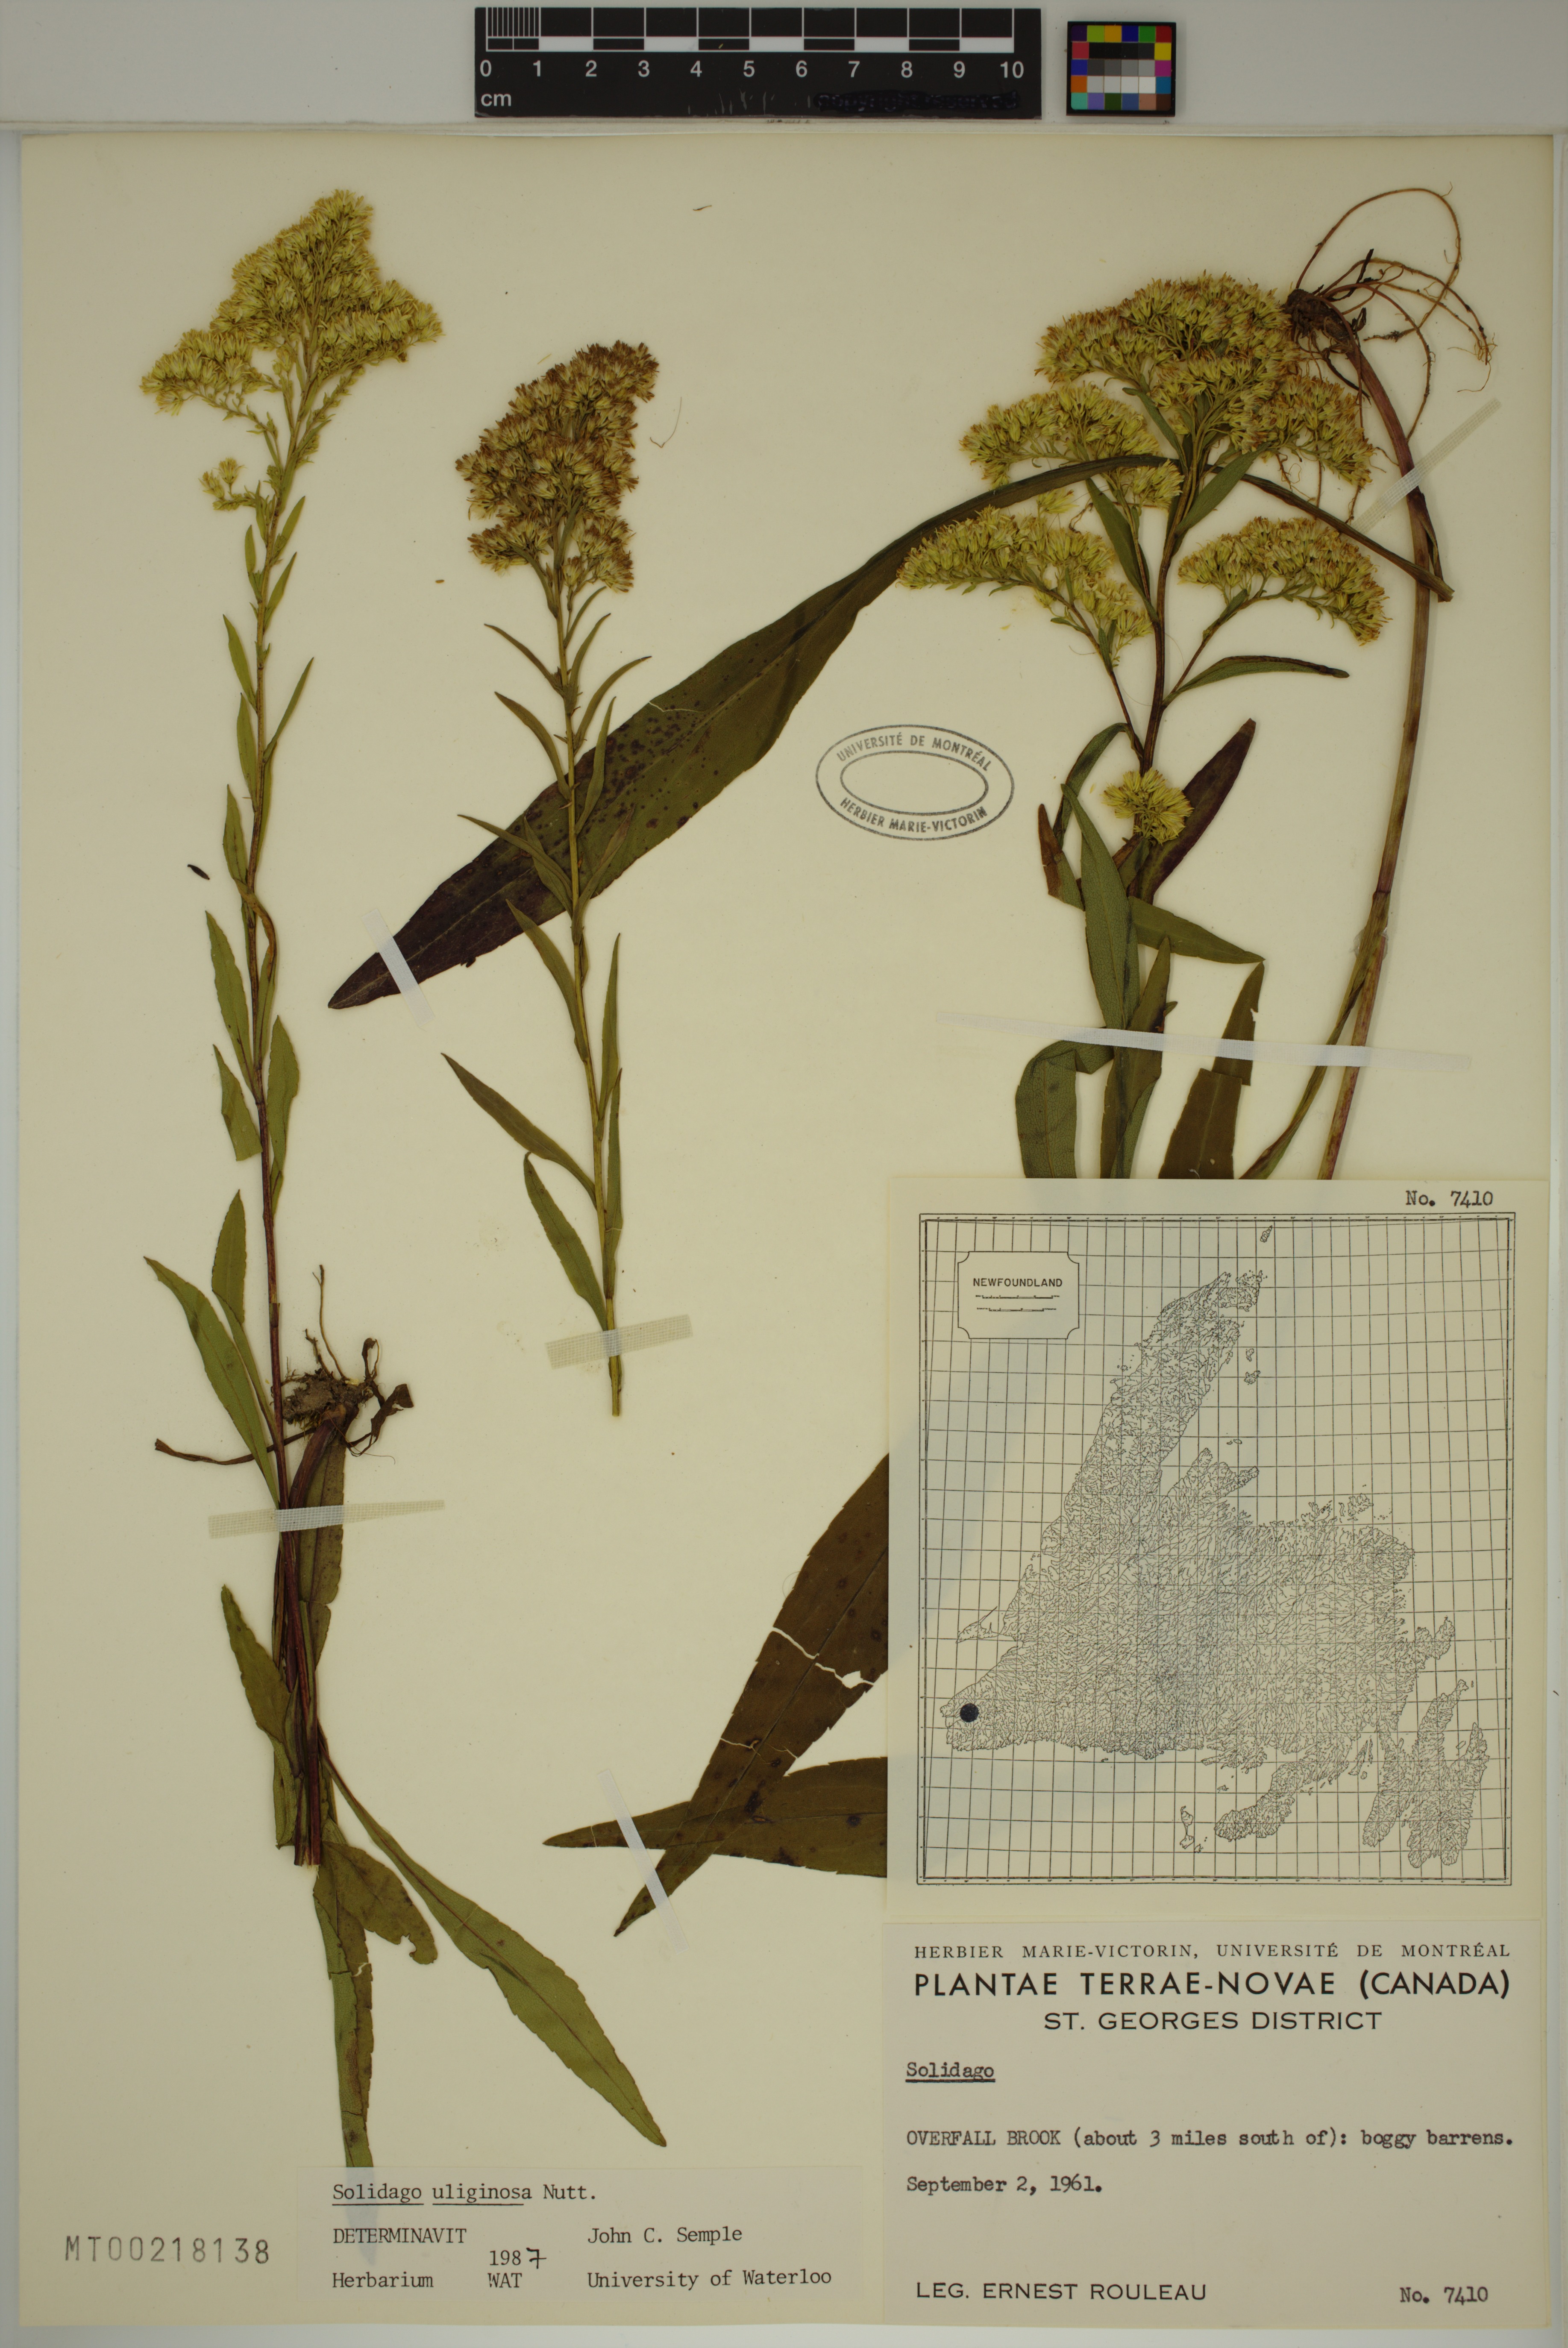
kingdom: Plantae
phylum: Tracheophyta
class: Magnoliopsida
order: Asterales
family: Asteraceae
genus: Solidago
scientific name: Solidago uliginosa
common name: Bog goldenrod
